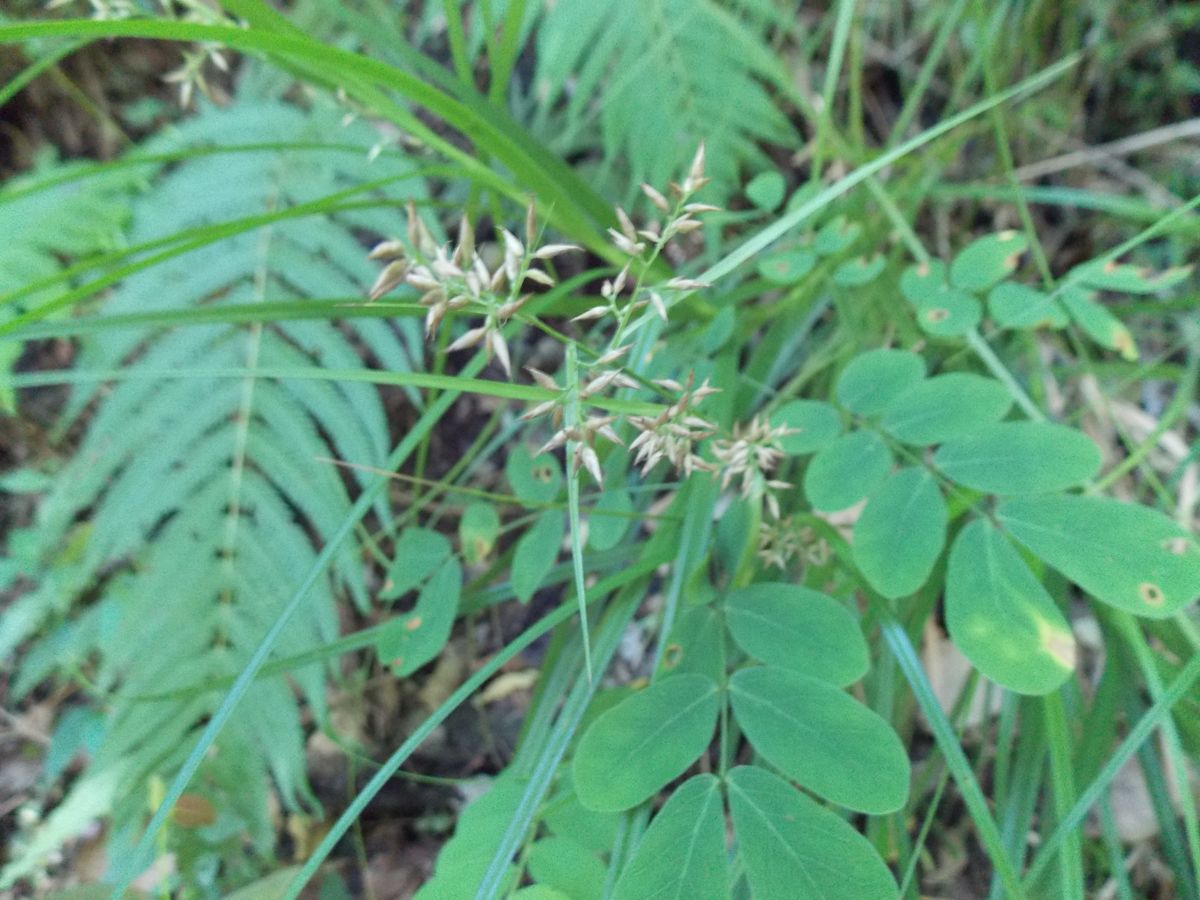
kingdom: Plantae
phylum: Tracheophyta
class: Liliopsida
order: Poales
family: Cyperaceae
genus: Rhynchospora
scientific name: Rhynchospora tuerckheimii
